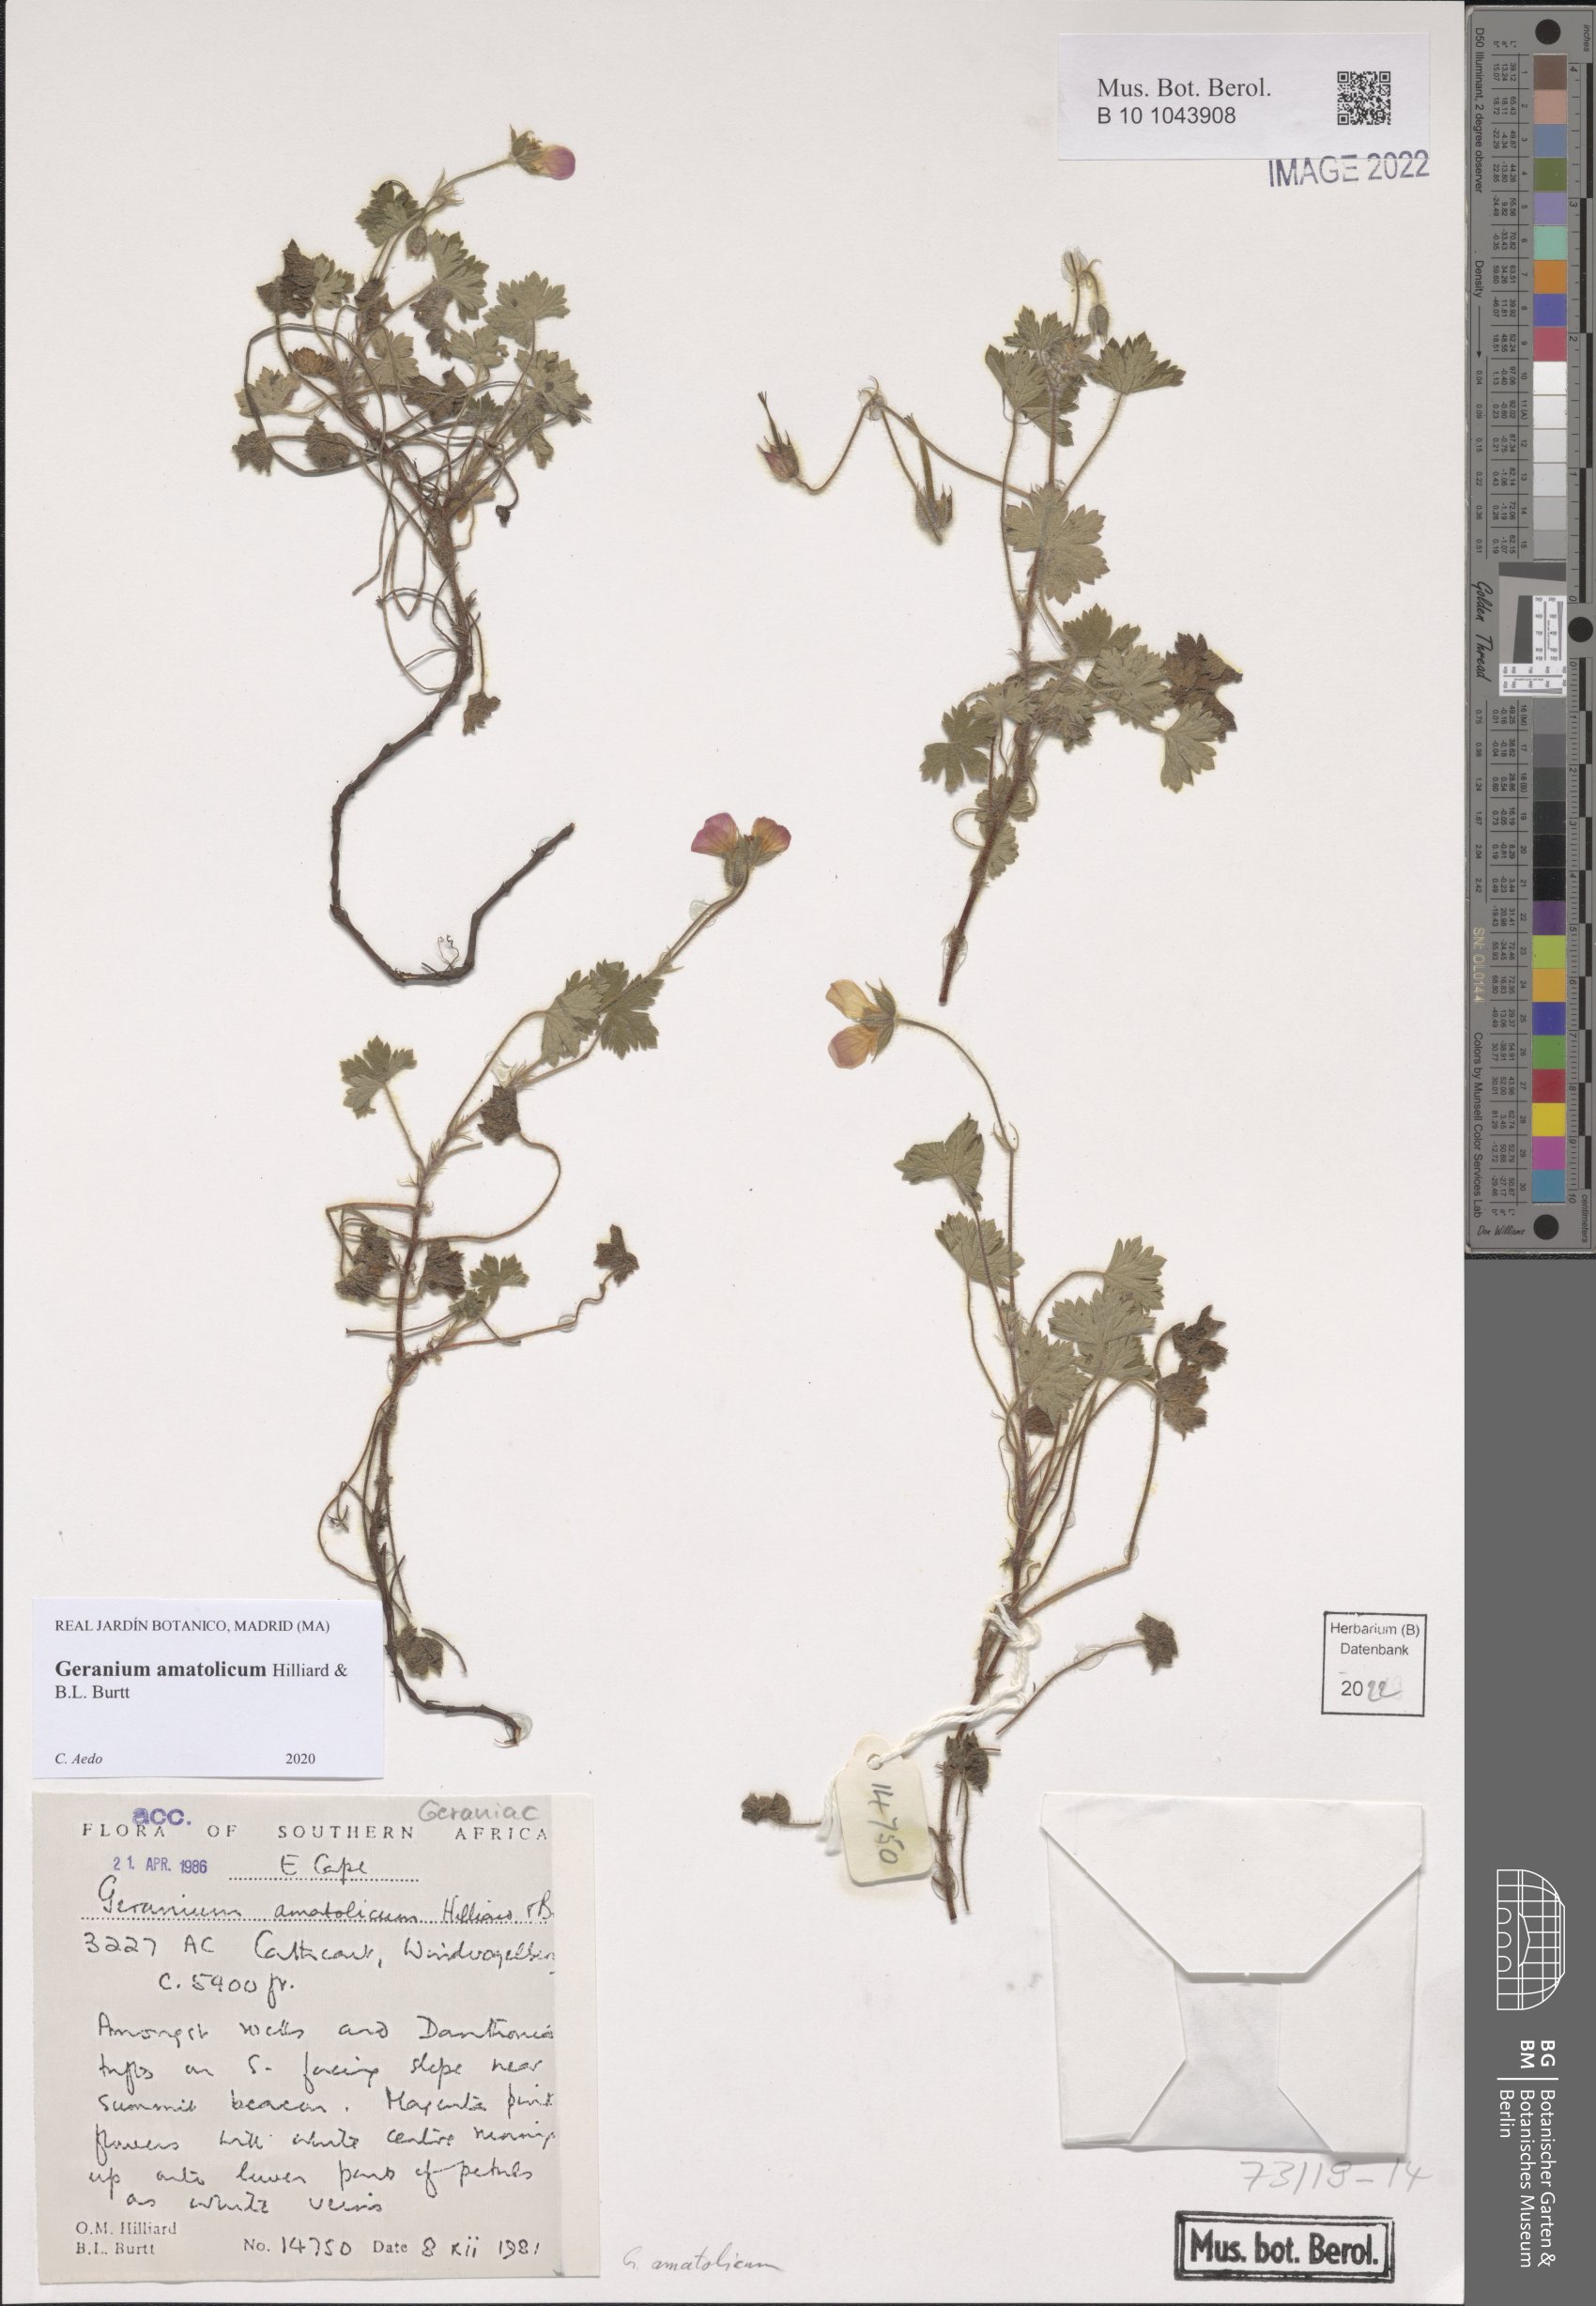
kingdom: Plantae
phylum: Tracheophyta
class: Magnoliopsida
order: Geraniales
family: Geraniaceae
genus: Geranium
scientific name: Geranium amatolicum
